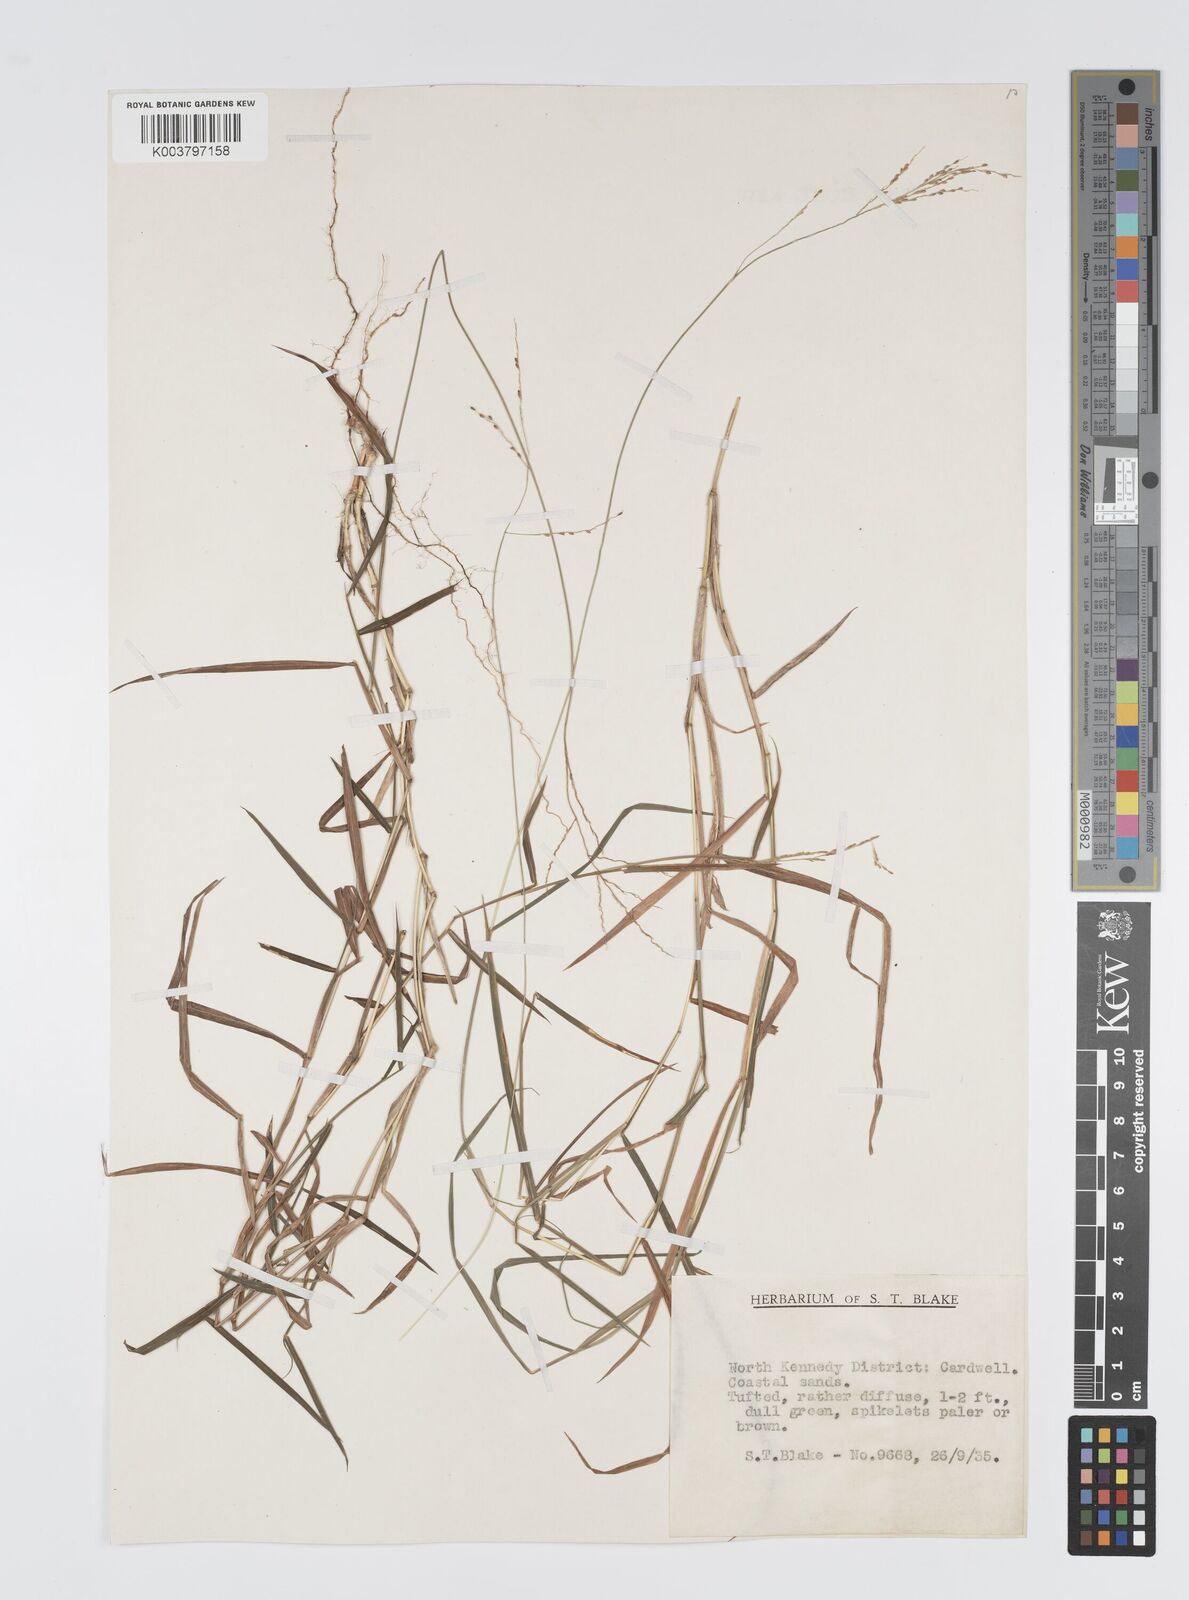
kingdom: Plantae
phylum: Tracheophyta
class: Liliopsida
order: Poales
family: Poaceae
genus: Digitaria
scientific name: Digitaria spec
